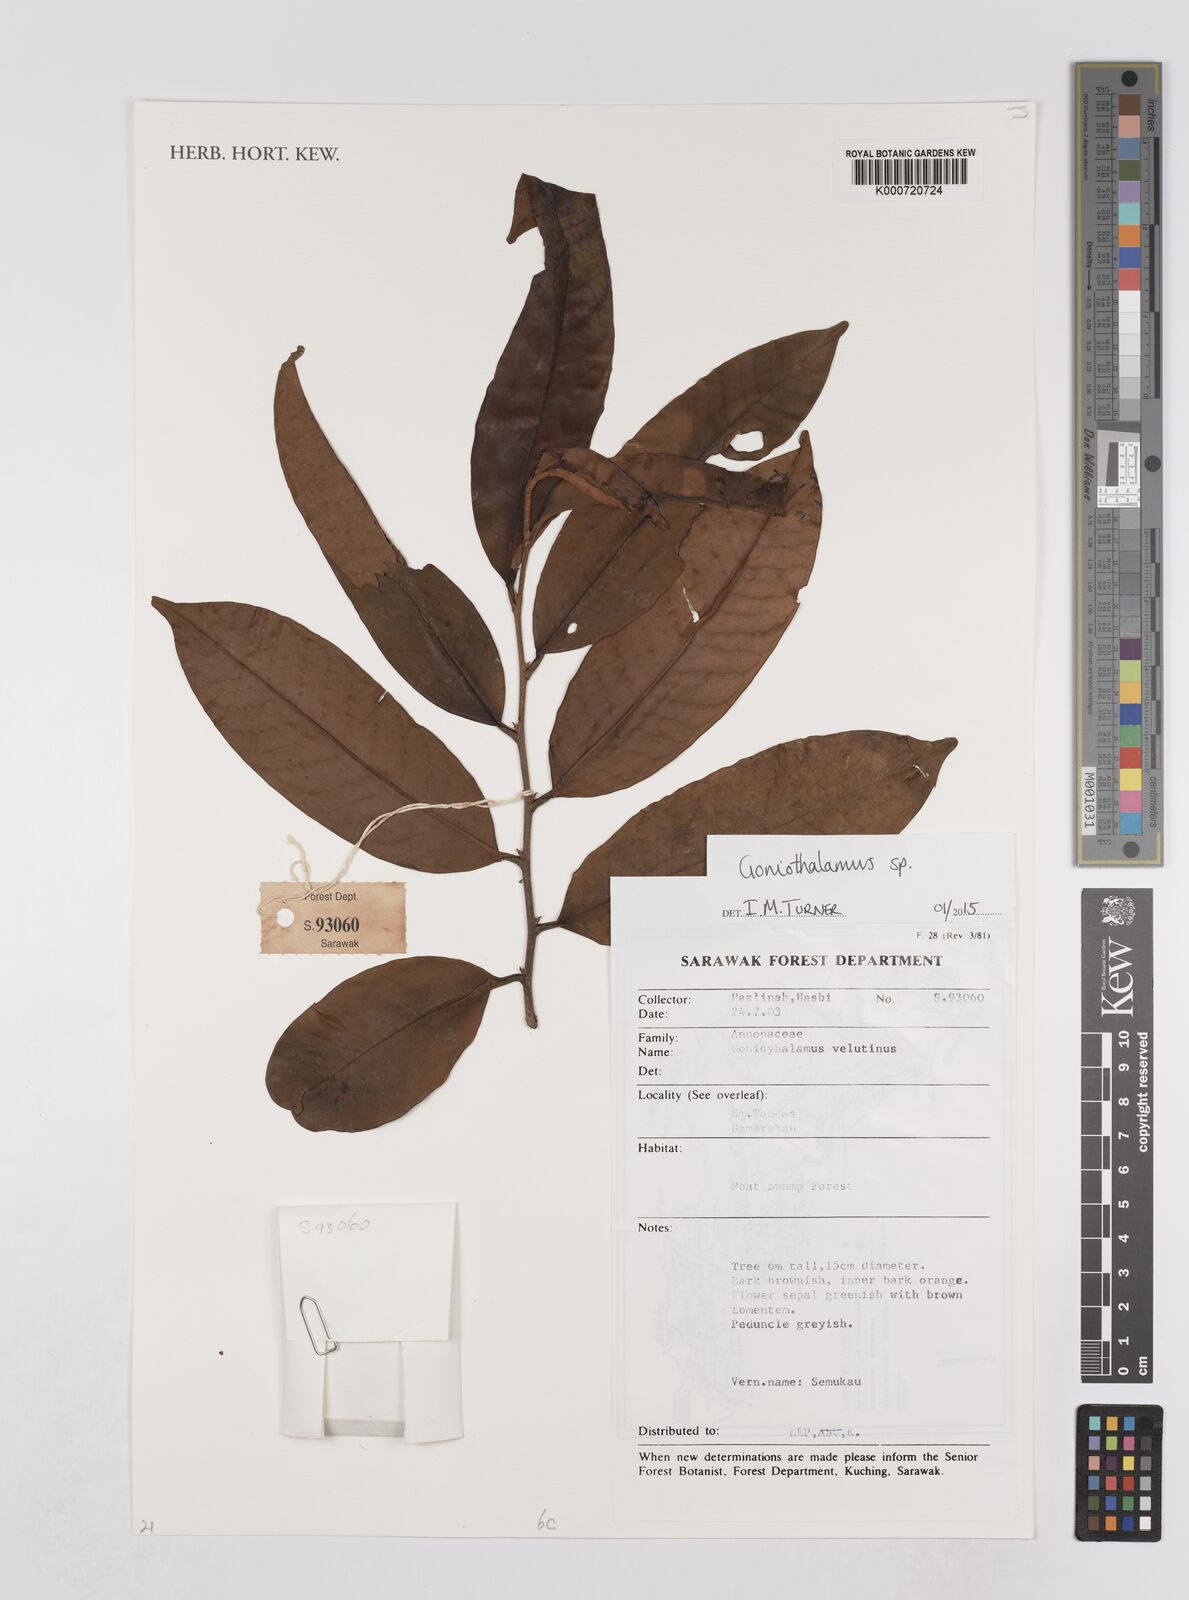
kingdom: Plantae
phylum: Tracheophyta
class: Magnoliopsida
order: Magnoliales
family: Annonaceae
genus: Goniothalamus
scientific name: Goniothalamus
